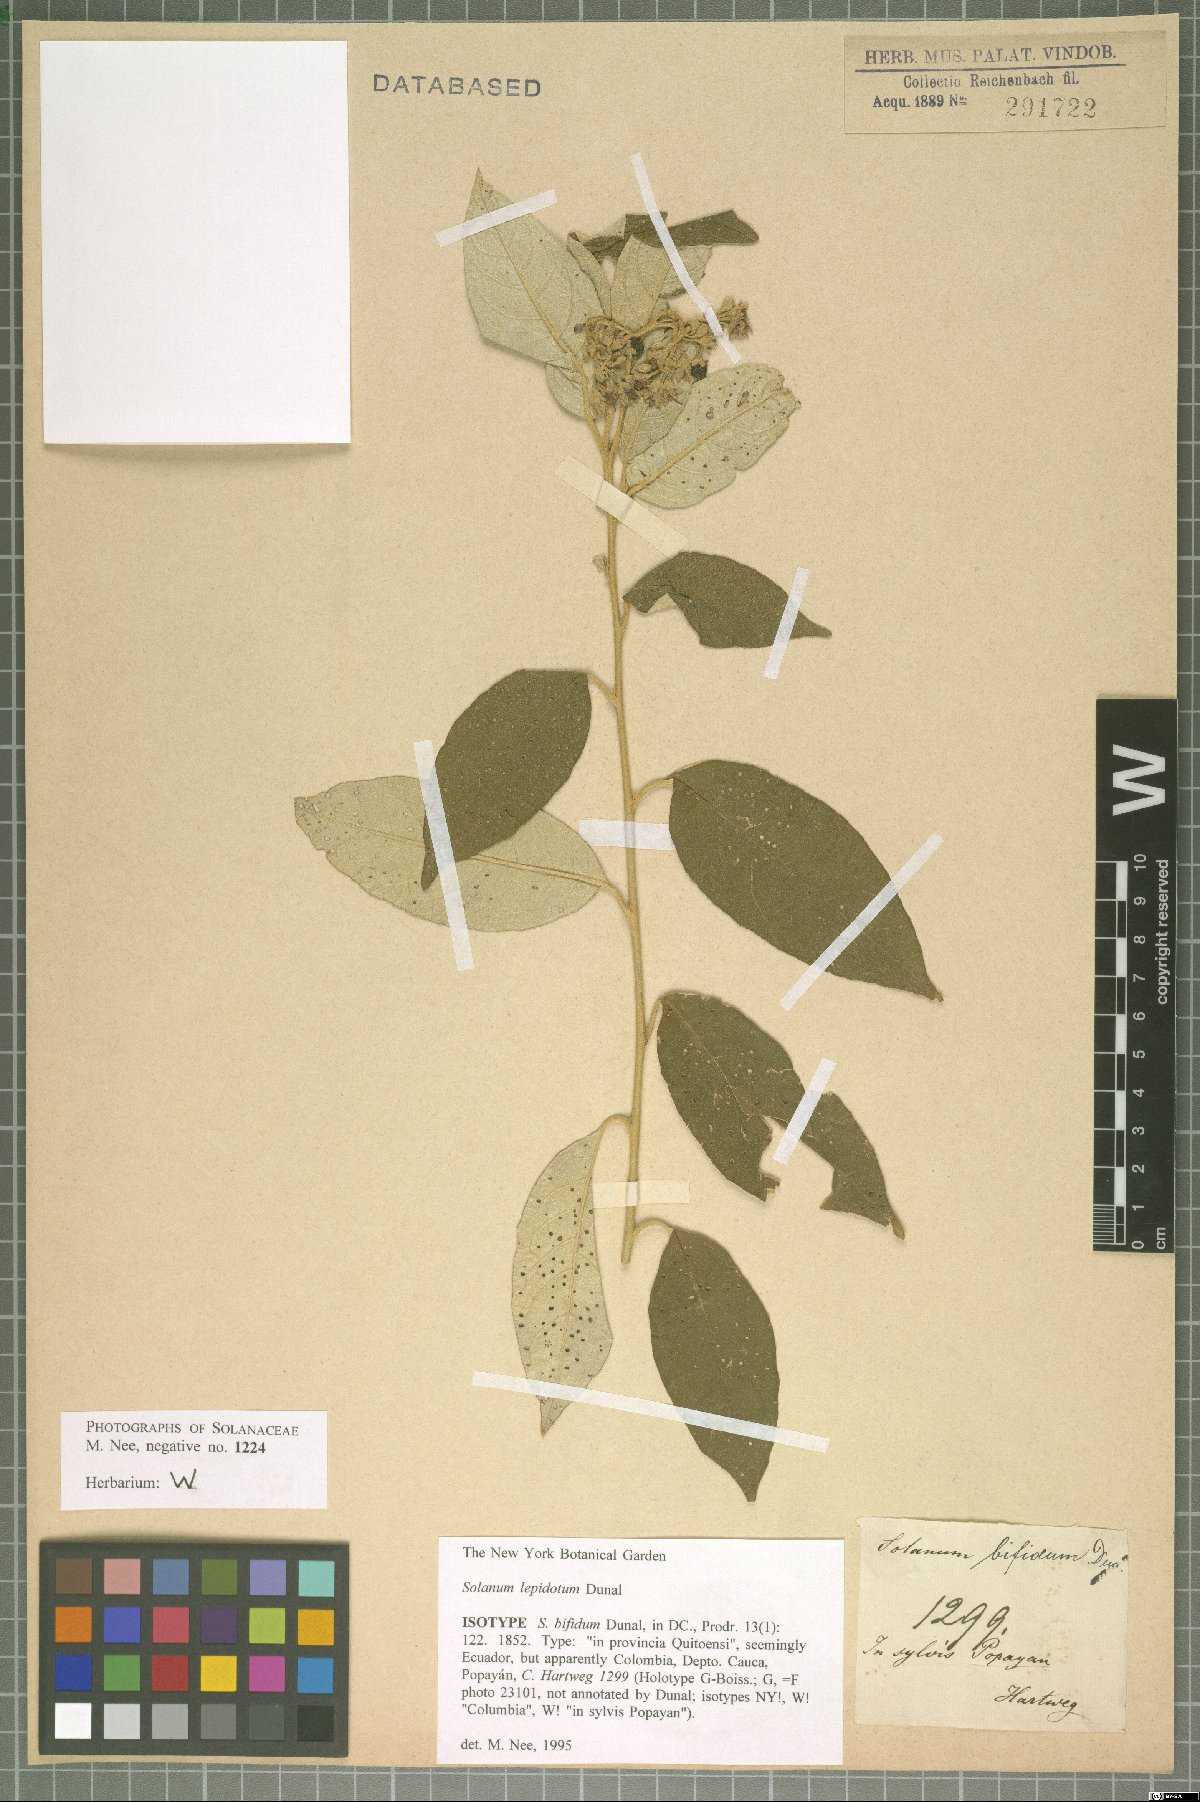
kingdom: Plantae
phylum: Tracheophyta
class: Magnoliopsida
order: Solanales
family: Solanaceae
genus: Solanum
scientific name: Solanum lepidotum
